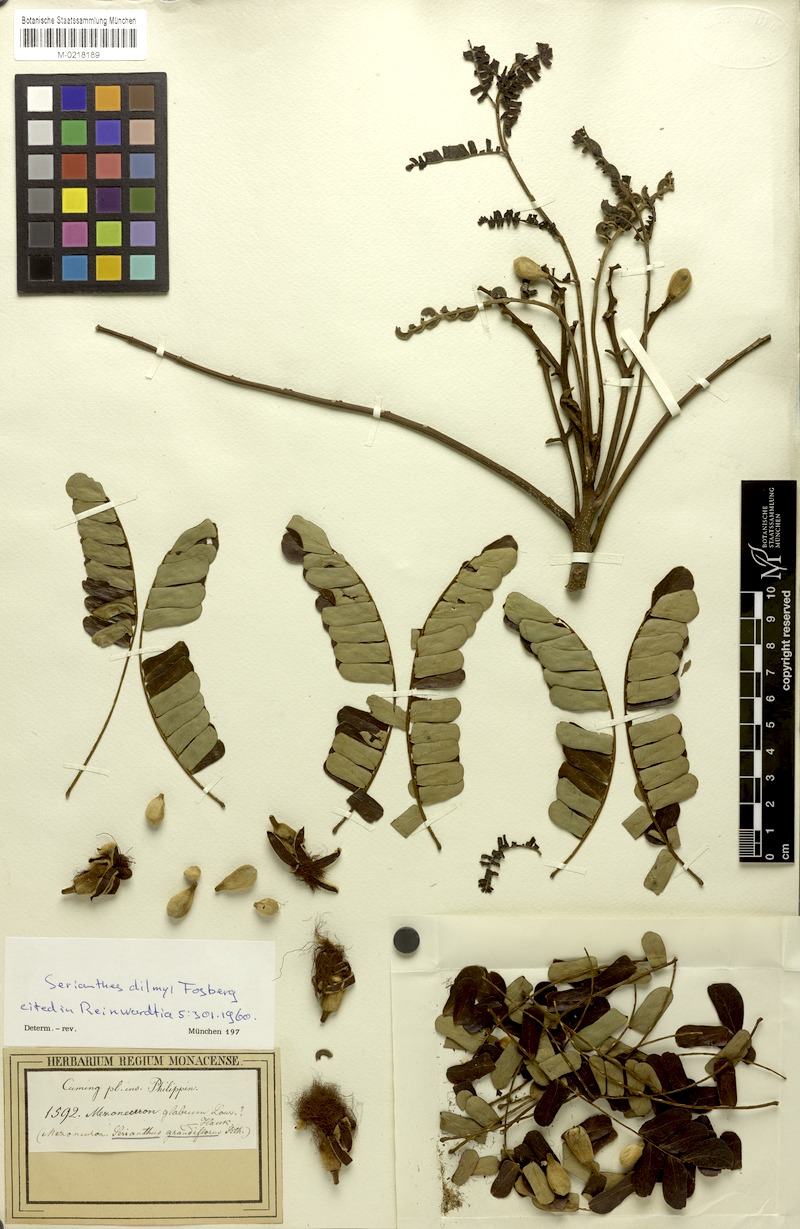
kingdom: Plantae
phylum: Tracheophyta
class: Magnoliopsida
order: Fabales
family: Fabaceae
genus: Serianthes
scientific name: Serianthes grandiflora
